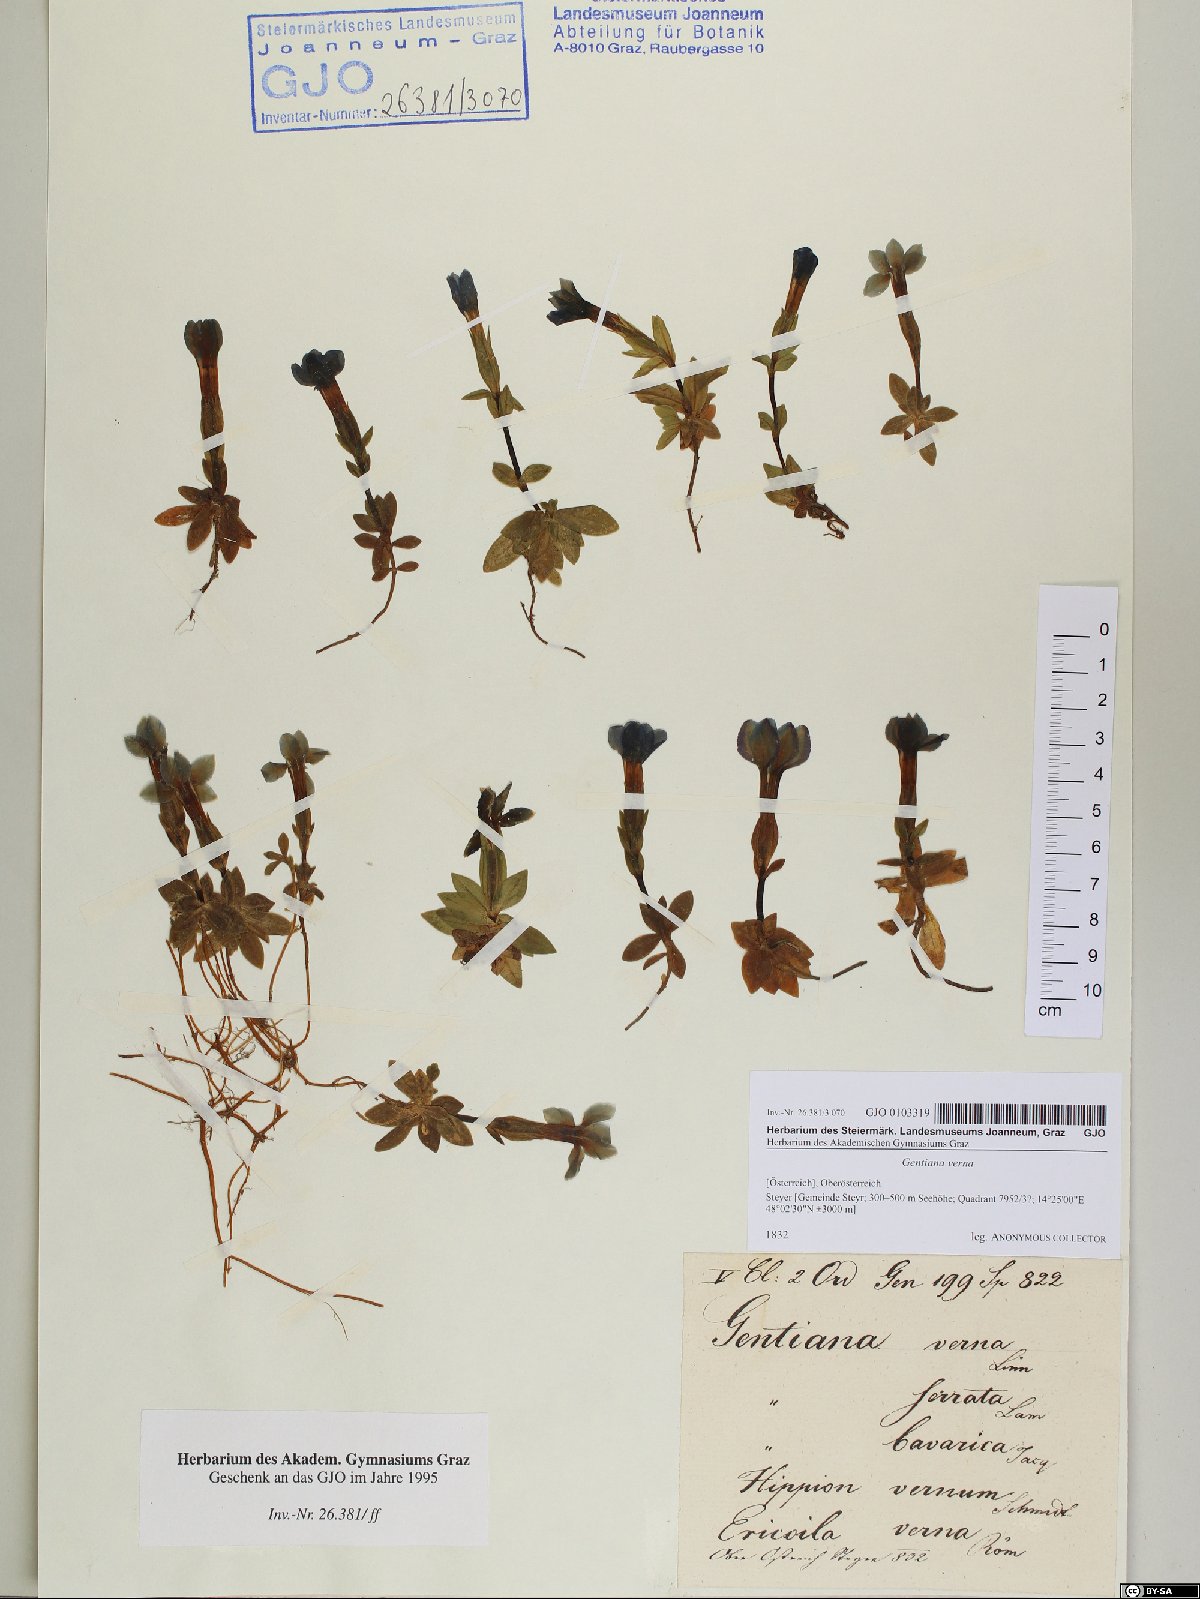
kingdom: Plantae
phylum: Tracheophyta
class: Magnoliopsida
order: Gentianales
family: Gentianaceae
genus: Gentiana
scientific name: Gentiana verna
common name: Spring gentian
